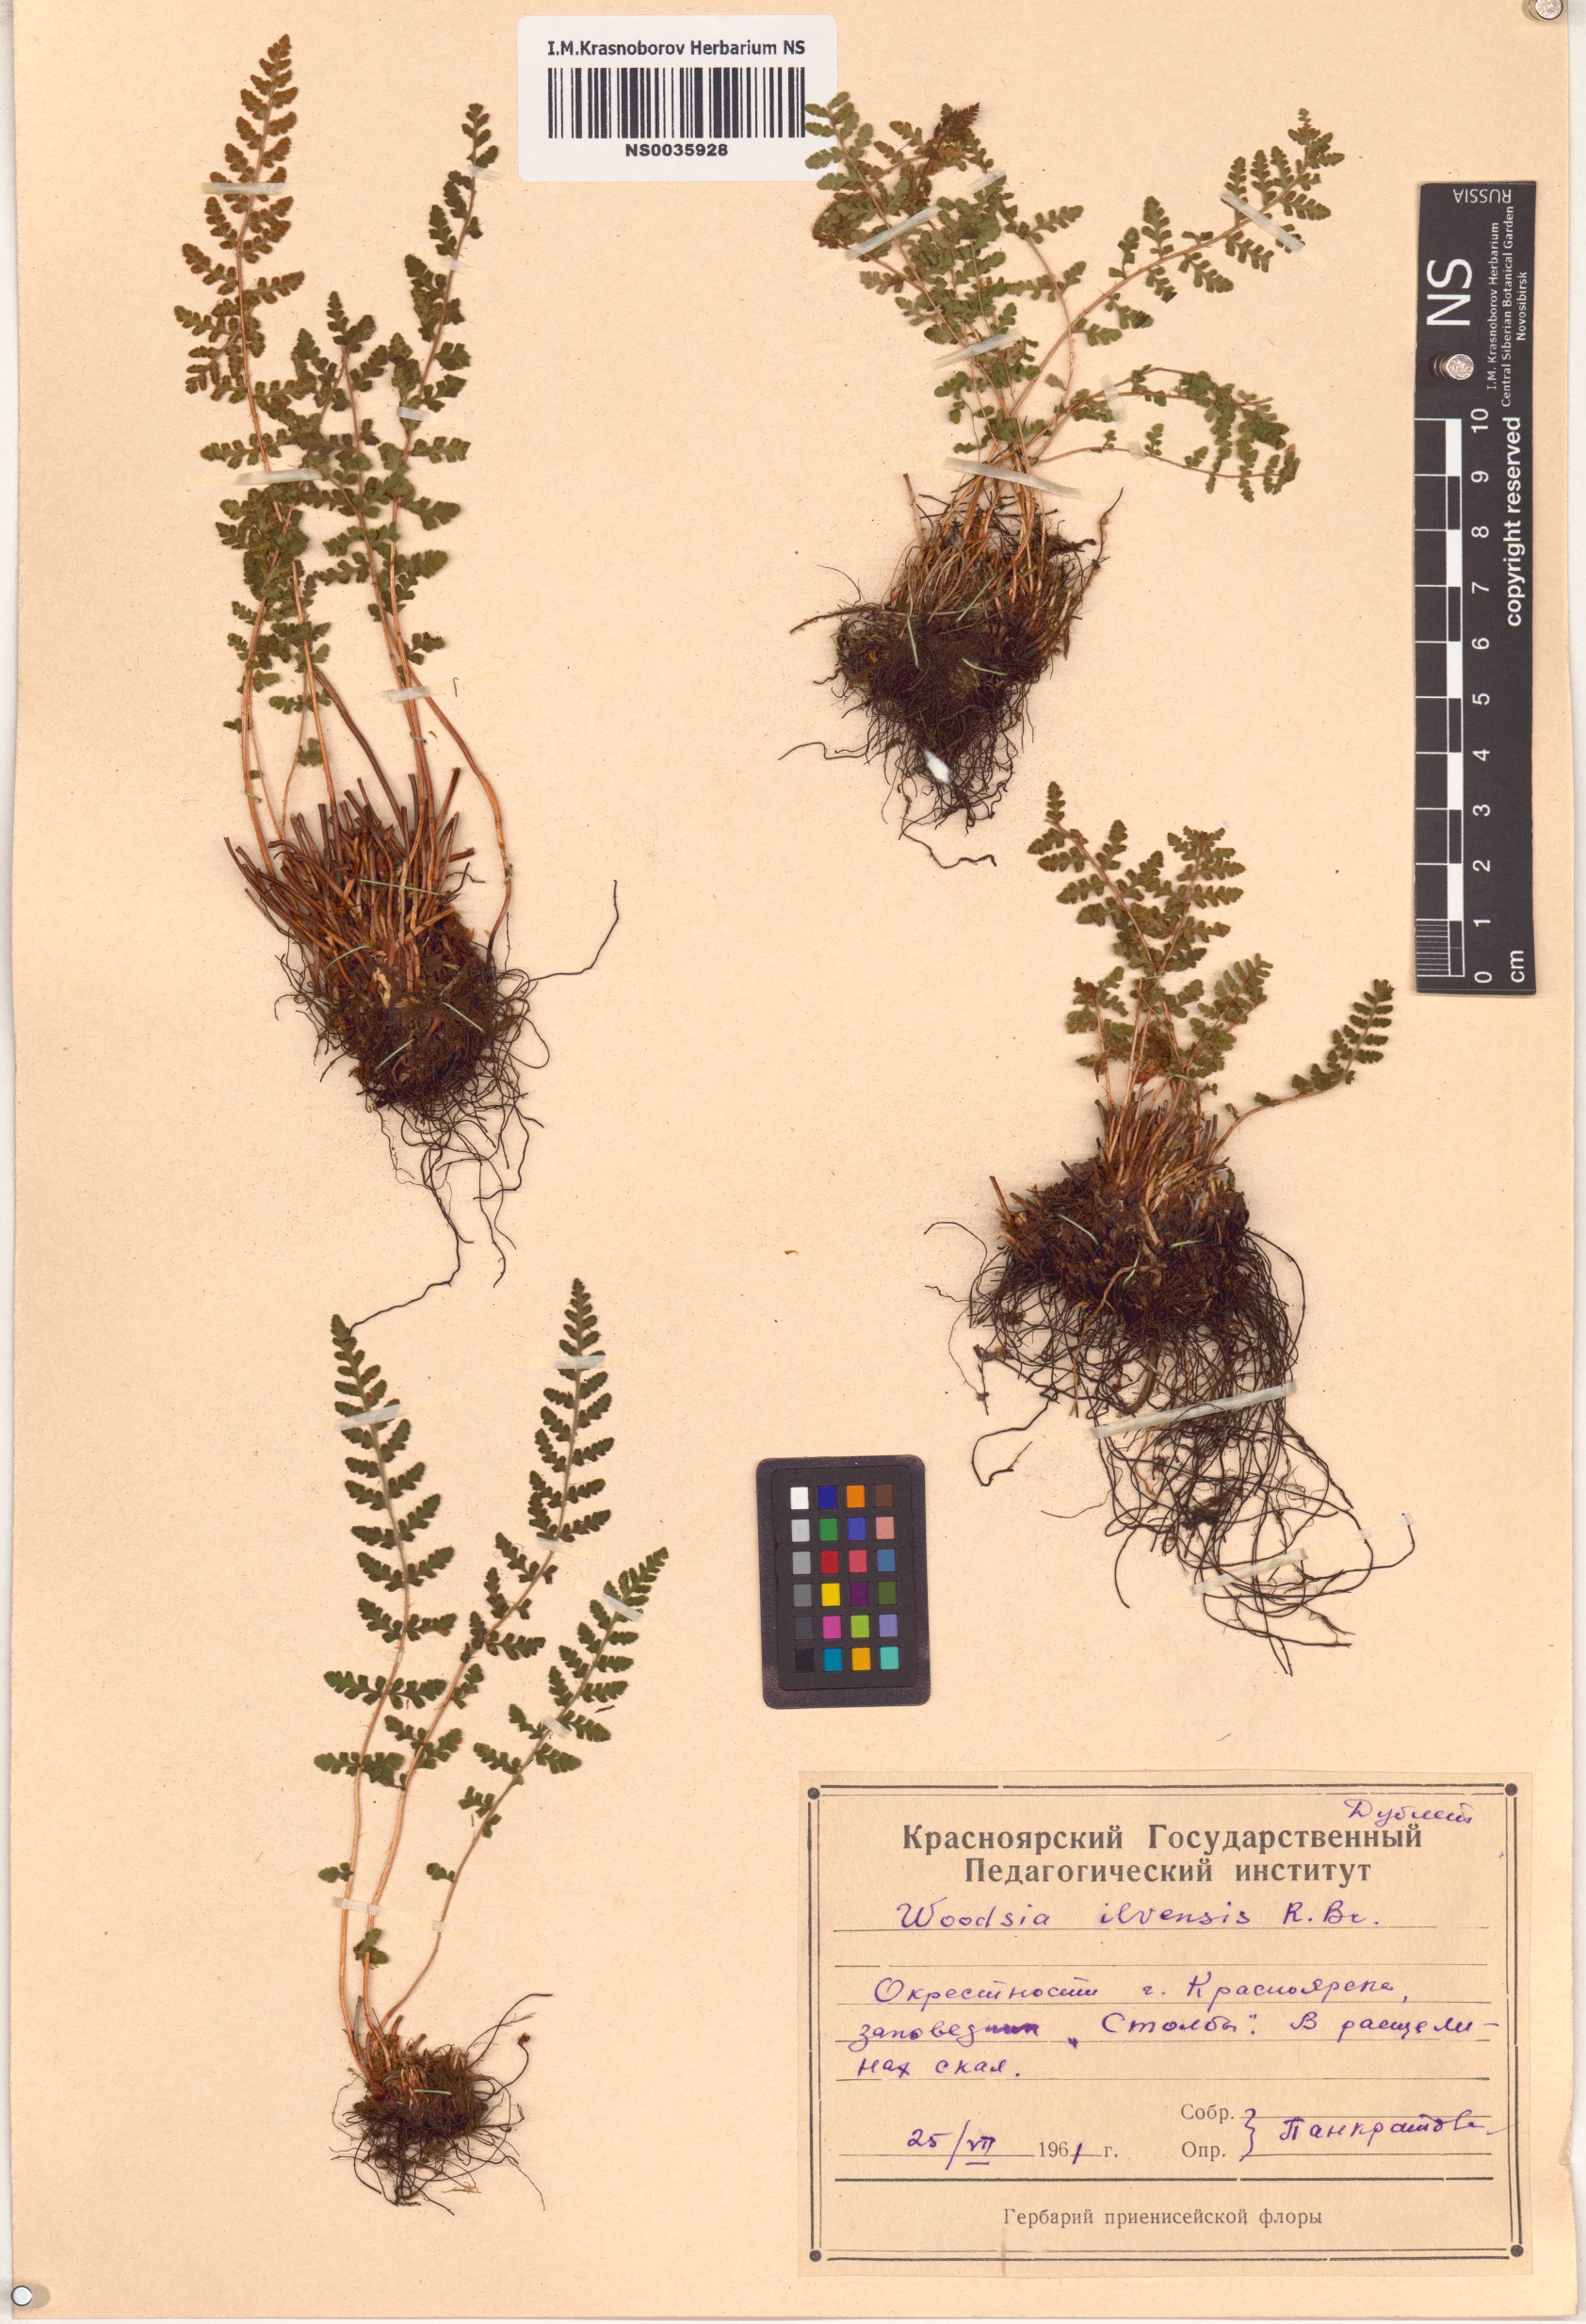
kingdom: Plantae
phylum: Tracheophyta
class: Polypodiopsida
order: Polypodiales
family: Woodsiaceae
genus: Woodsia
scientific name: Woodsia ilvensis
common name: Fragrant woodsia
